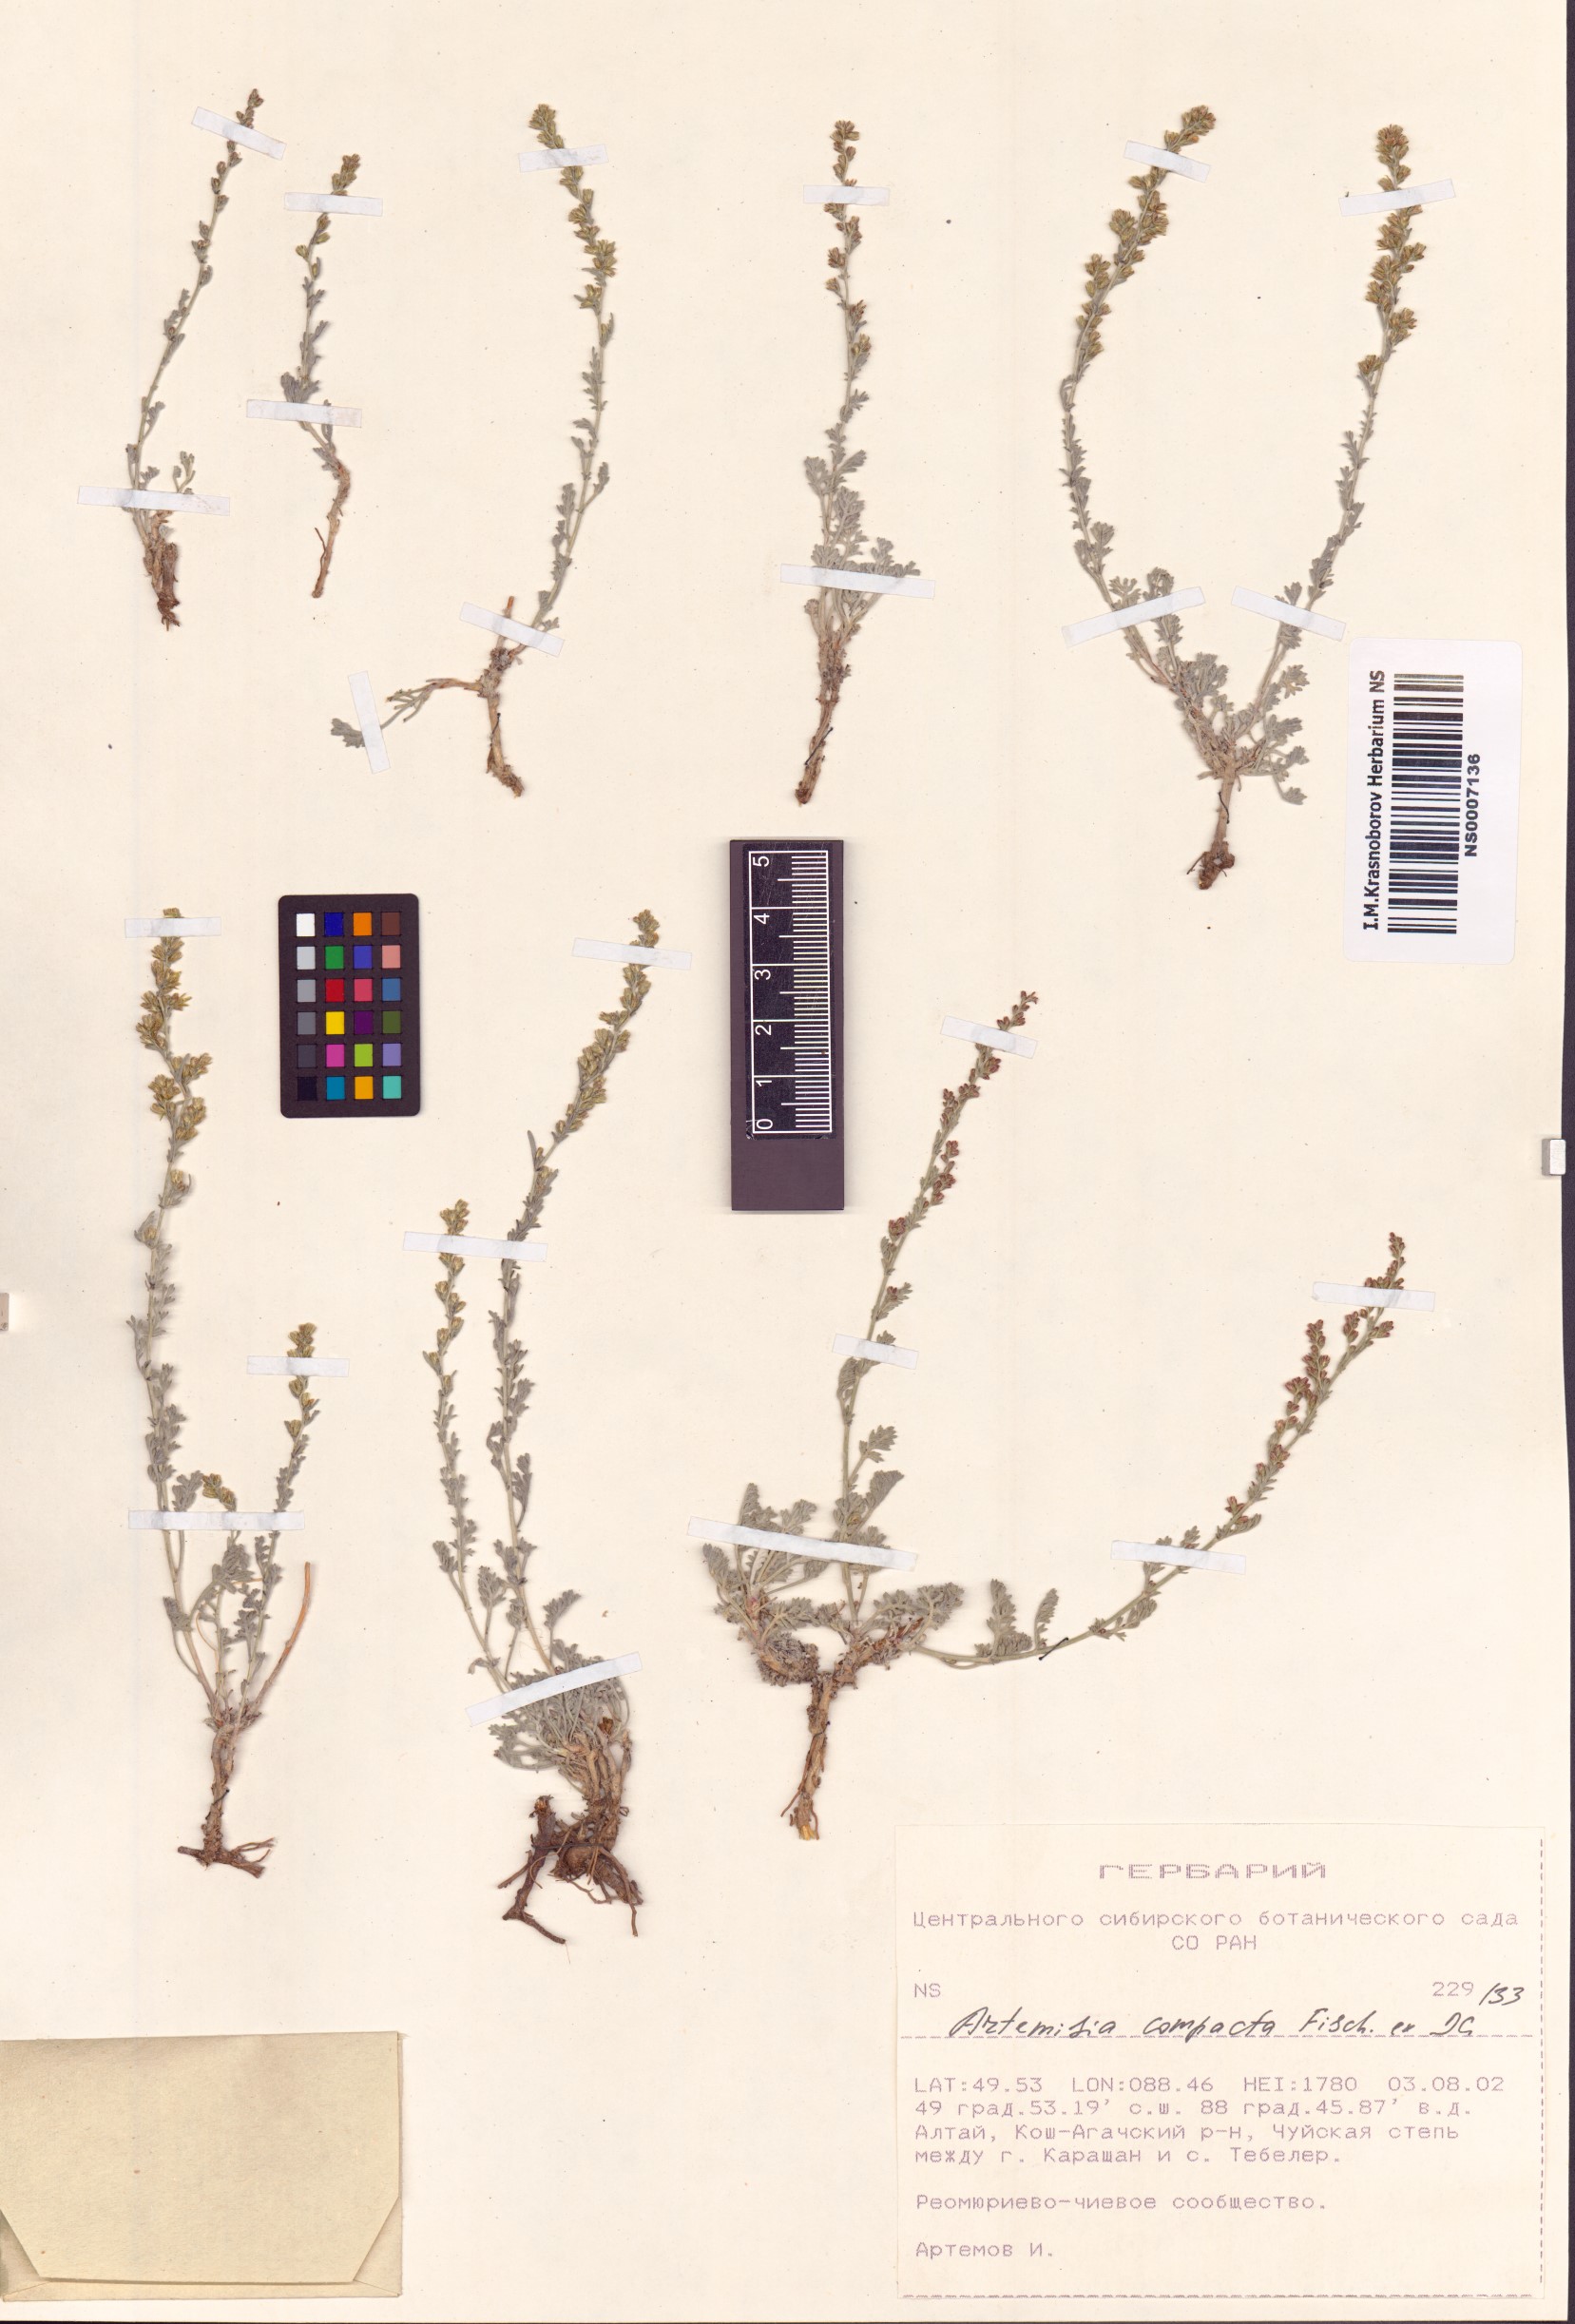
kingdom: Plantae
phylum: Tracheophyta
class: Magnoliopsida
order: Asterales
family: Asteraceae
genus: Artemisia
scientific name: Artemisia compacta
